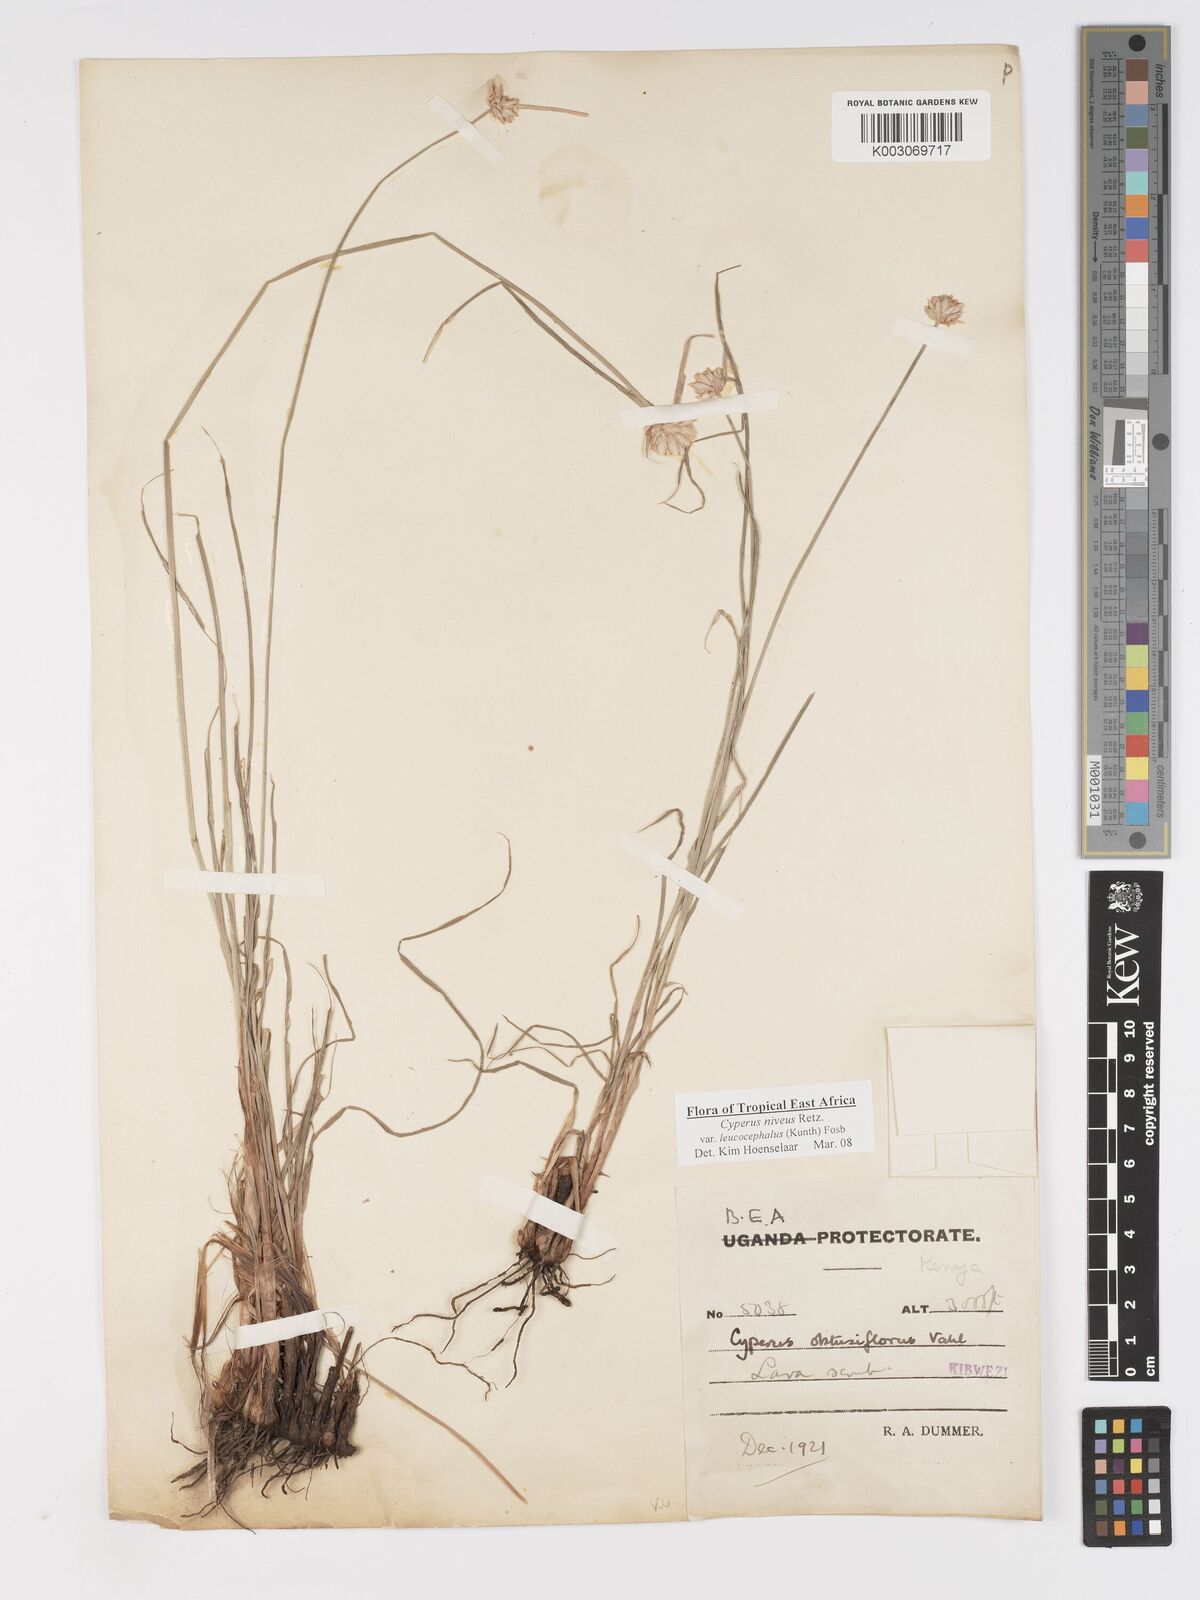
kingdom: Plantae
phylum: Tracheophyta
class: Liliopsida
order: Poales
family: Cyperaceae
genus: Cyperus
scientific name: Cyperus niveus
